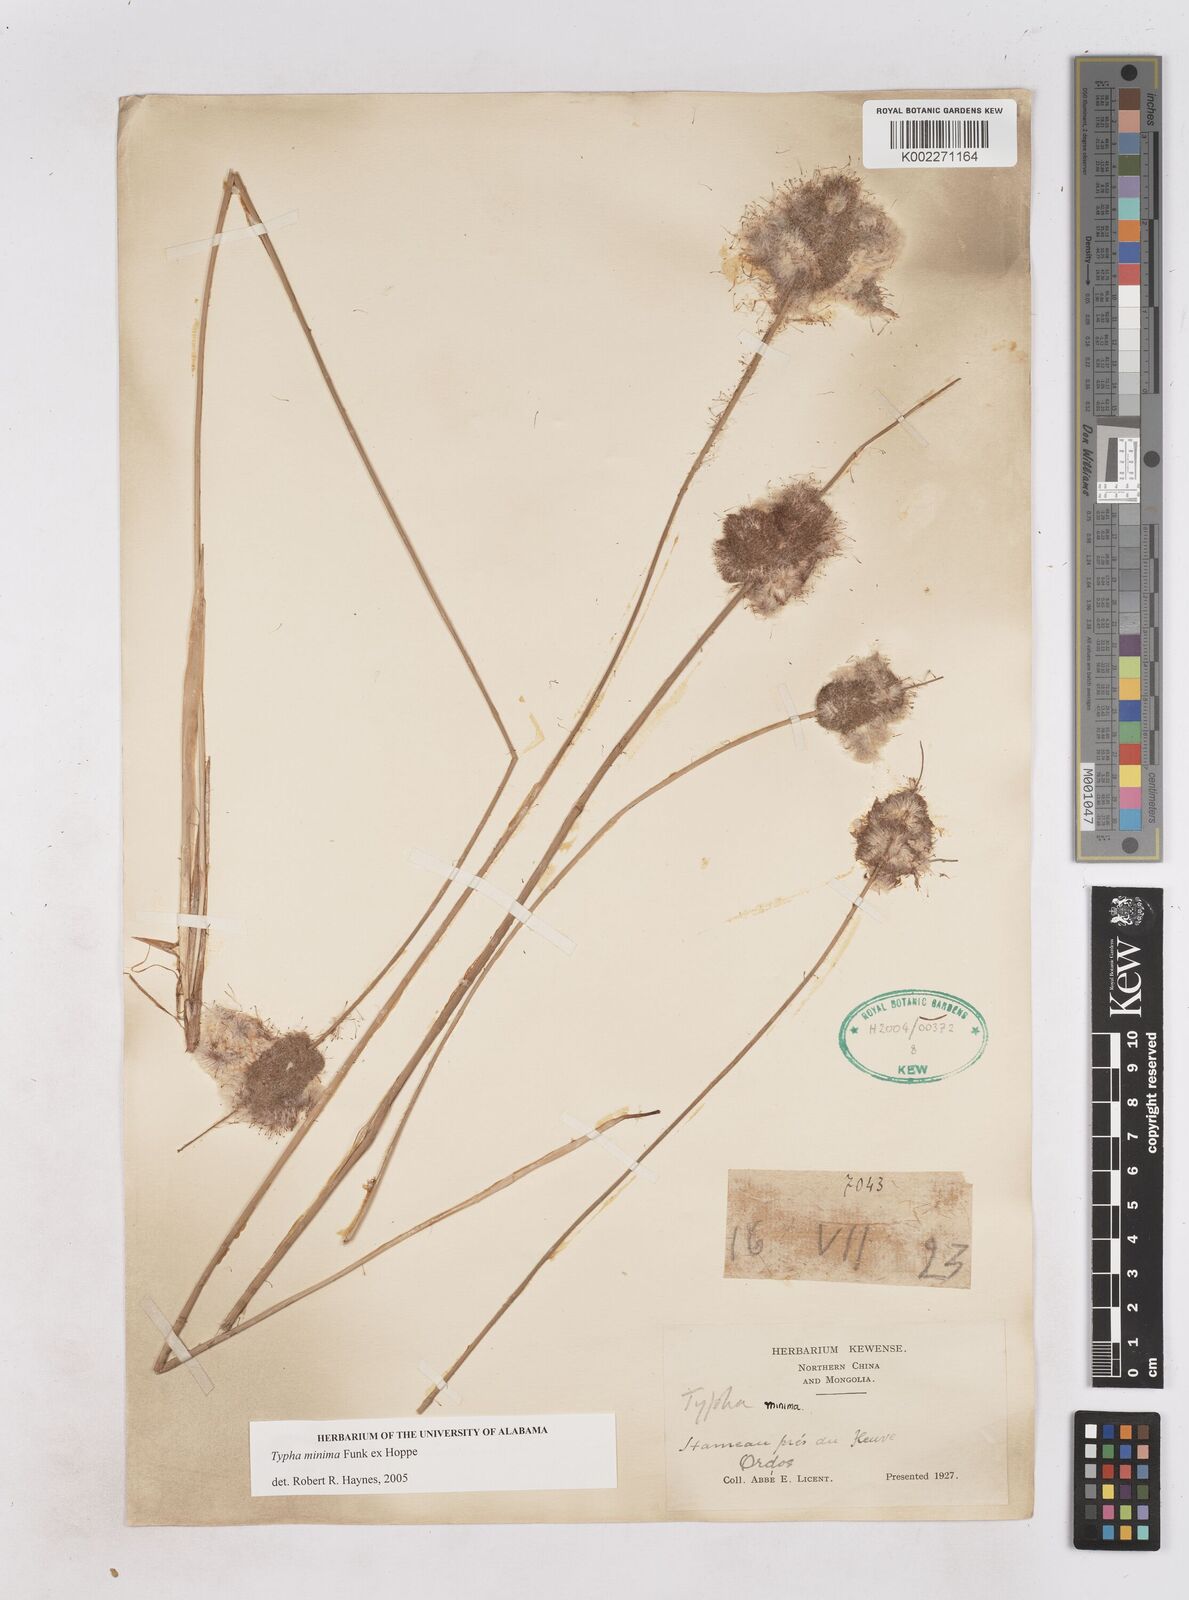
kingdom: Plantae
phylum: Tracheophyta
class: Liliopsida
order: Poales
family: Typhaceae
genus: Typha
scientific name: Typha
